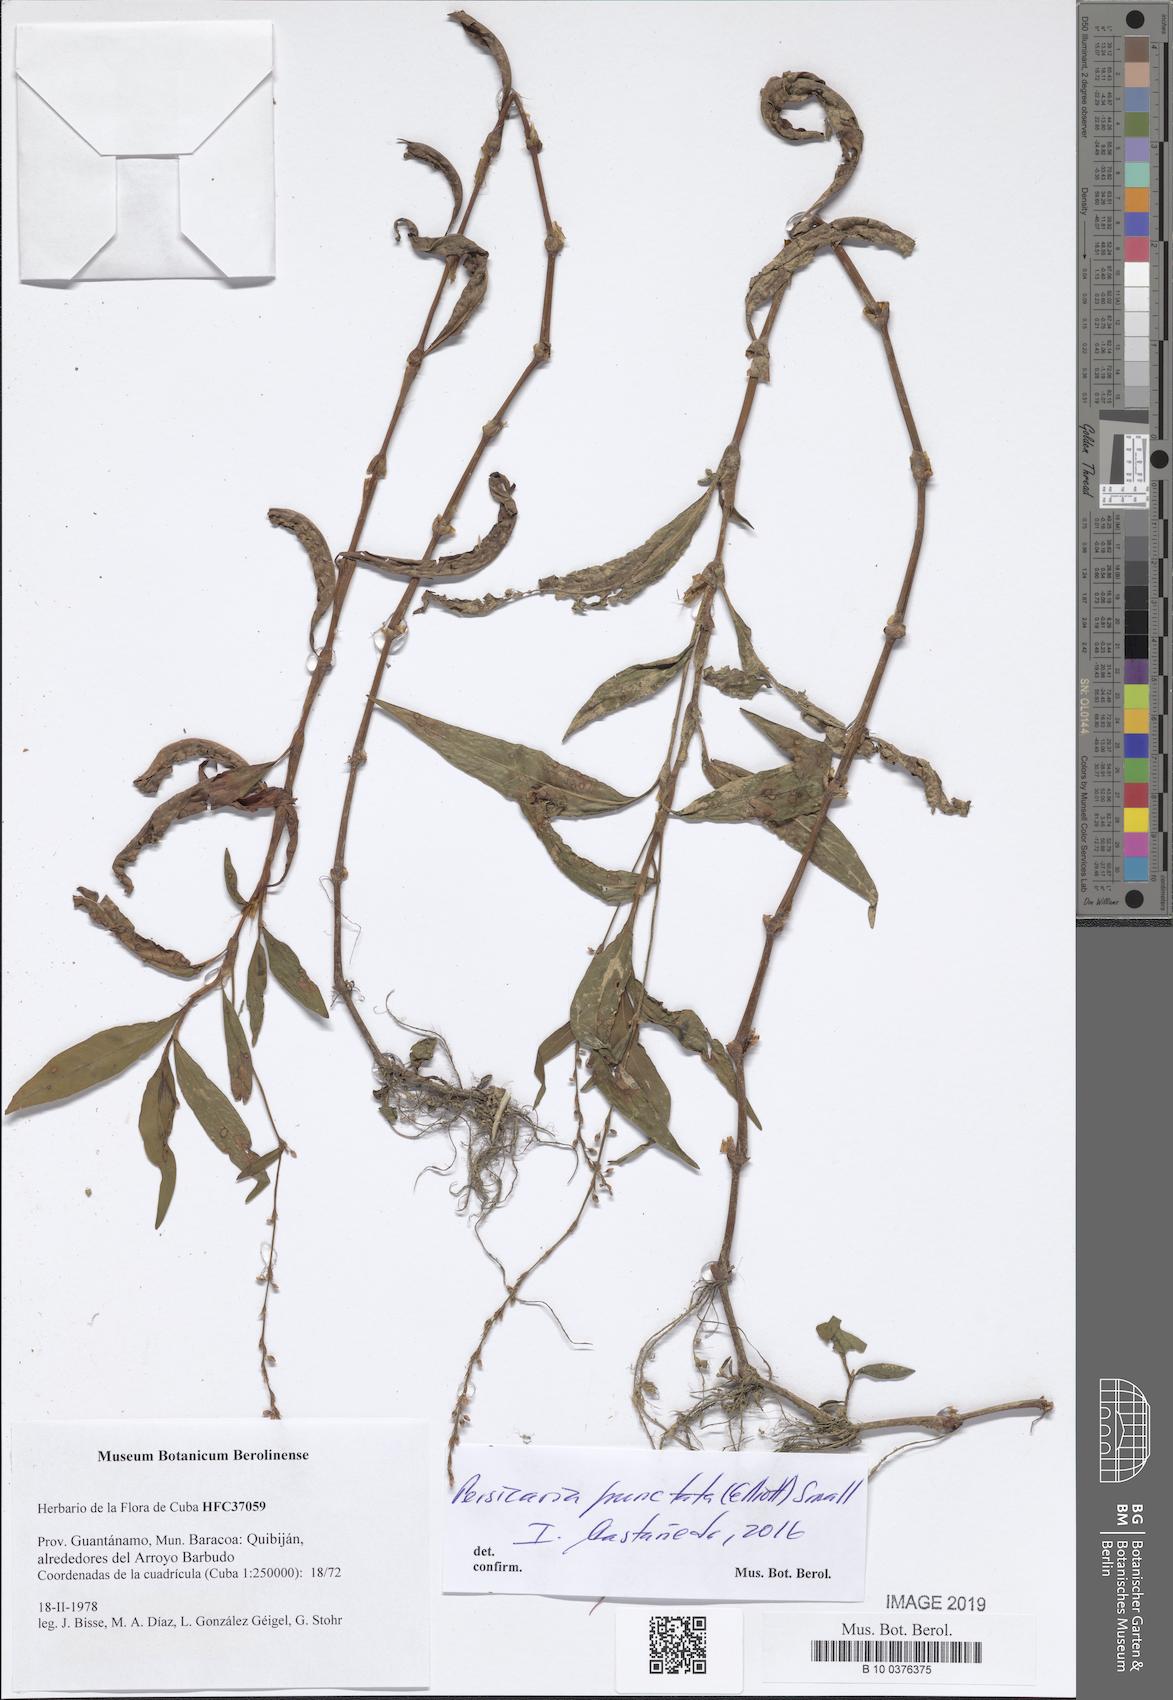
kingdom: Plantae
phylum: Tracheophyta
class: Magnoliopsida
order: Caryophyllales
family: Polygonaceae
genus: Persicaria
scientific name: Persicaria punctata
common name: Dotted smartweed
